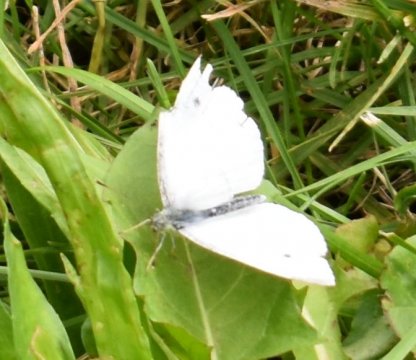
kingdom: Animalia
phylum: Arthropoda
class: Insecta
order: Lepidoptera
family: Pieridae
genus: Pieris
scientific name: Pieris rapae
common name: Cabbage White
